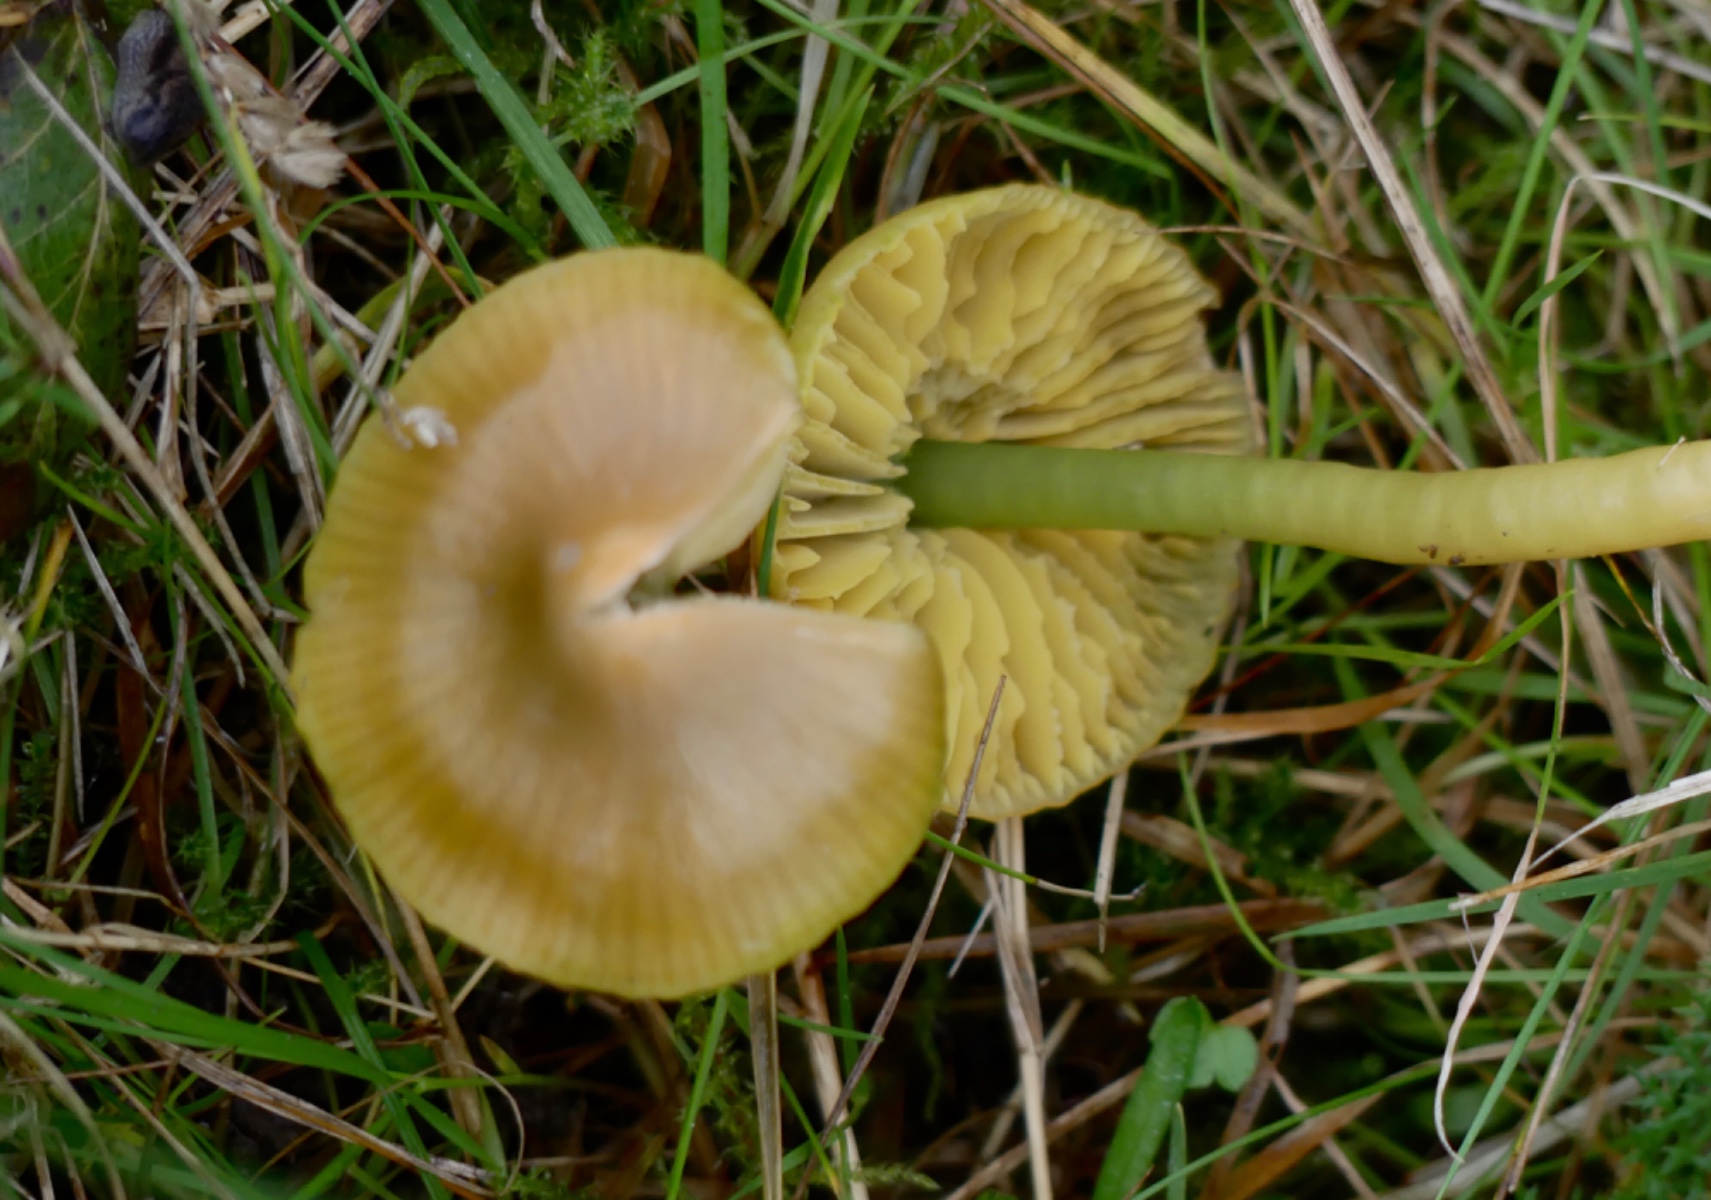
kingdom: Fungi
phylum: Basidiomycota
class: Agaricomycetes
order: Agaricales
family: Hygrophoraceae
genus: Gliophorus
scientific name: Gliophorus psittacinus
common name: papegøje-vokshat
